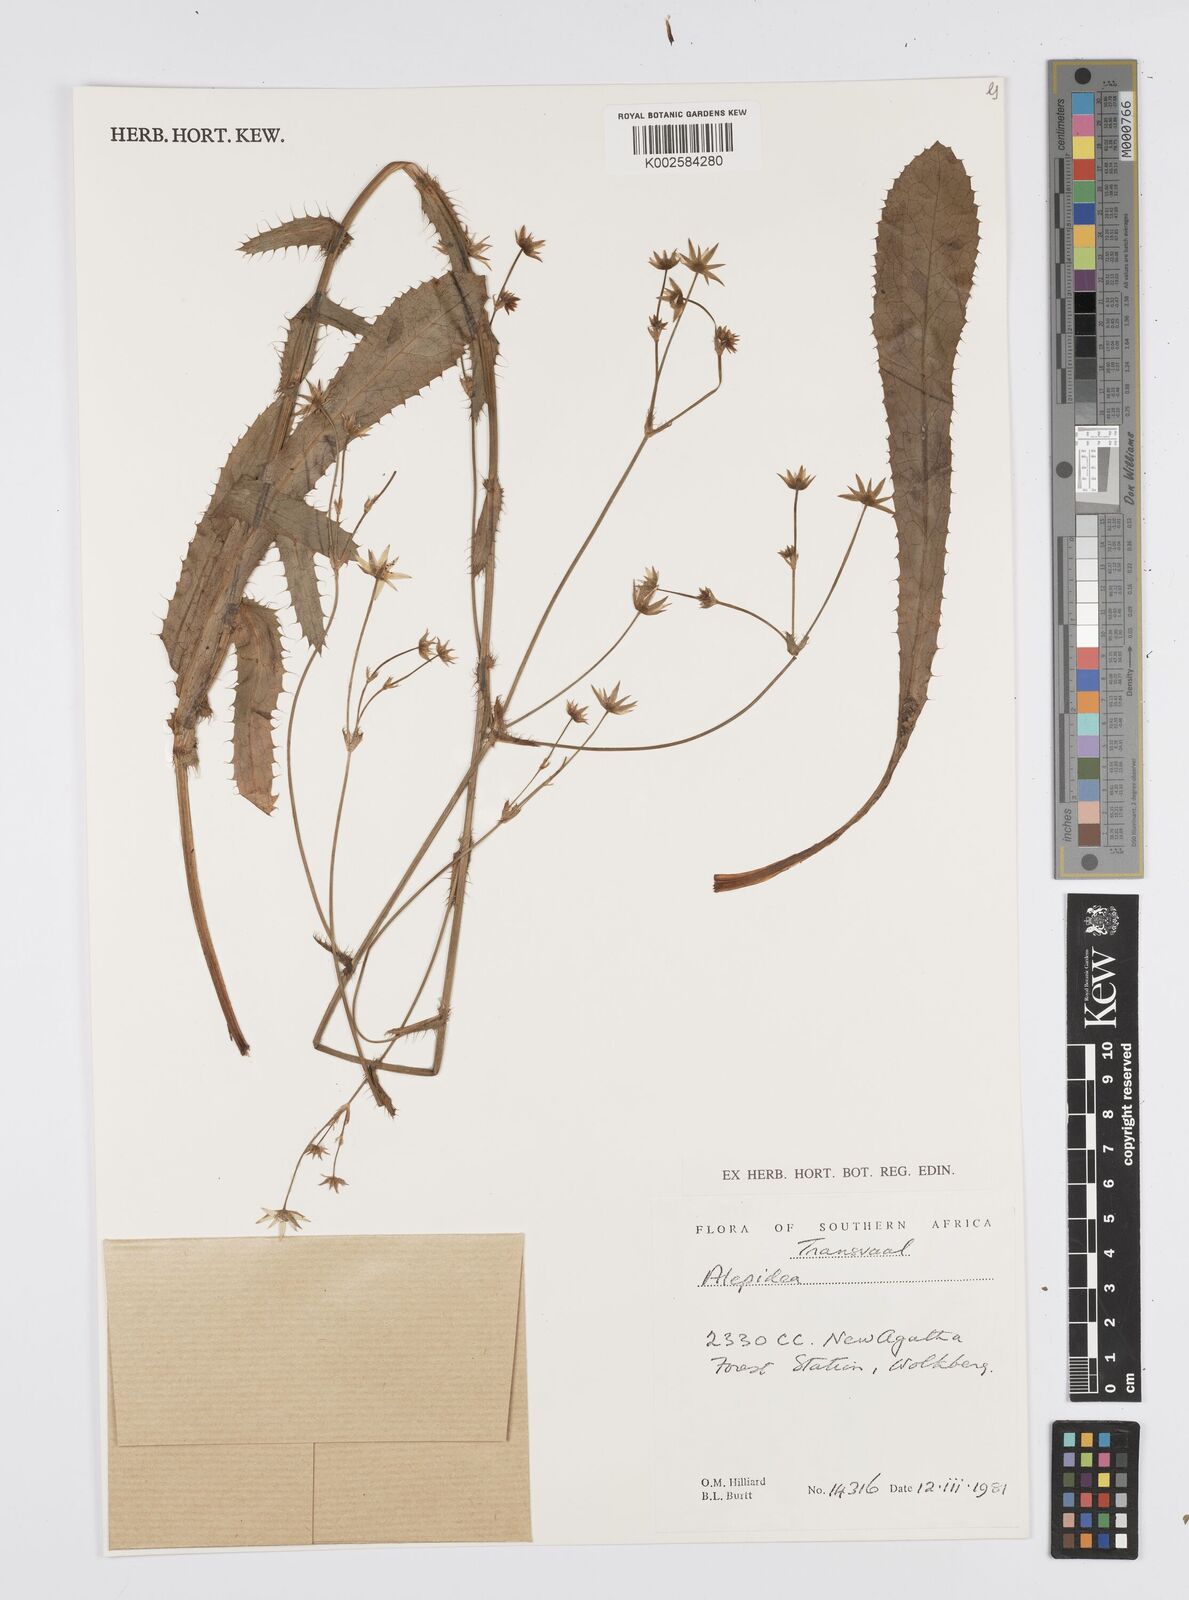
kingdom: Plantae
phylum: Tracheophyta
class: Magnoliopsida
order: Apiales
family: Apiaceae
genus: Alepidea
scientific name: Alepidea
